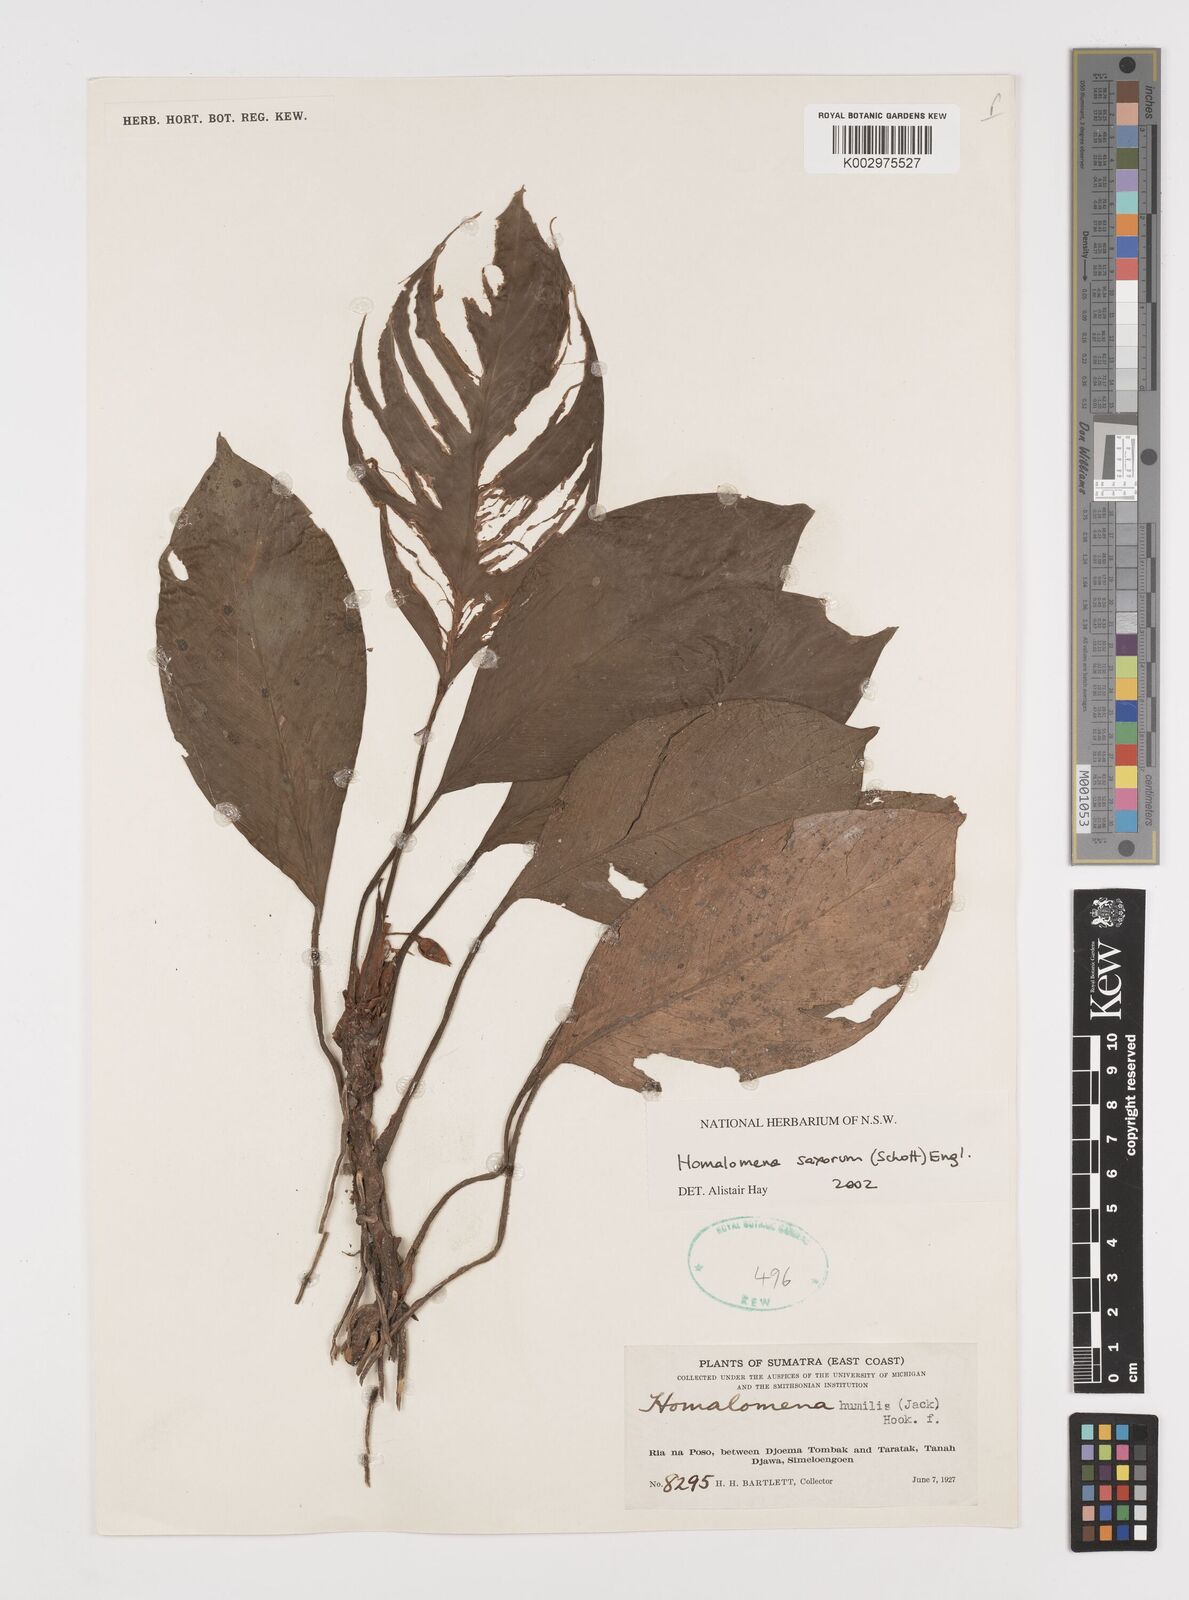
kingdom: Plantae
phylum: Tracheophyta
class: Liliopsida
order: Alismatales
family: Araceae
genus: Homalomena
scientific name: Homalomena saxorum
